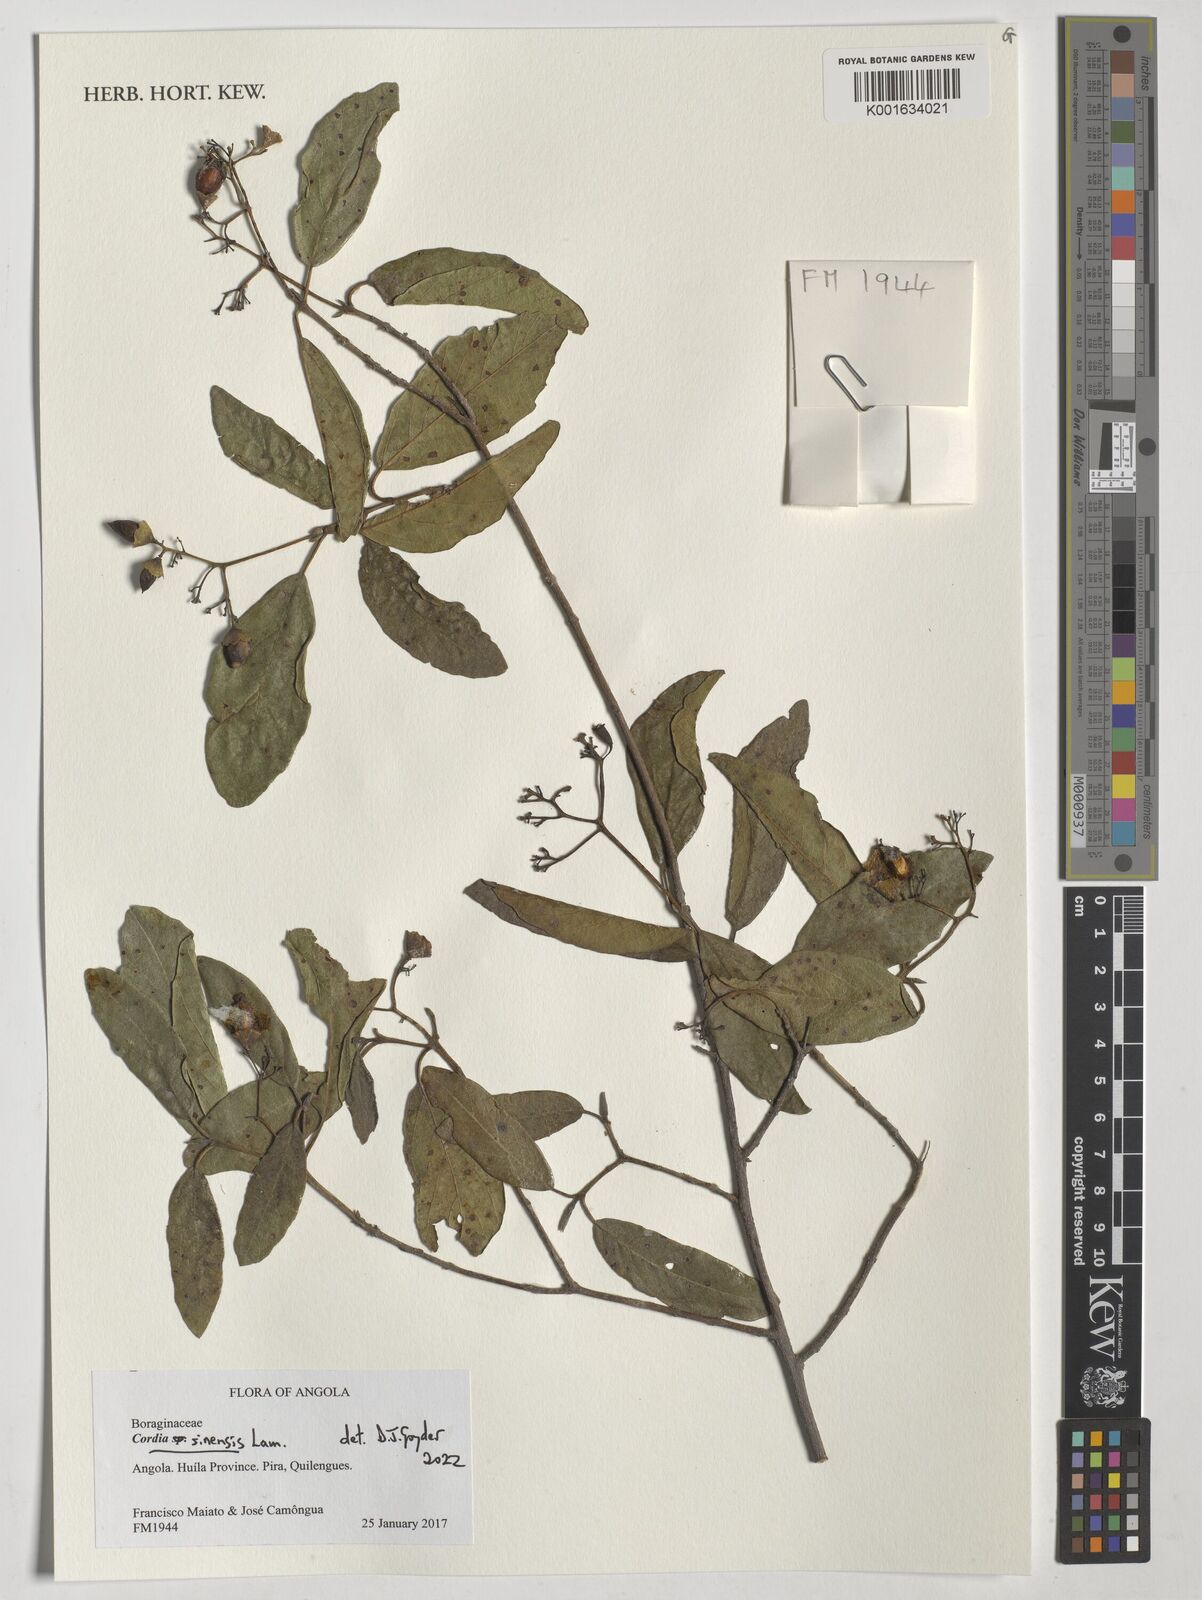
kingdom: Plantae
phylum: Tracheophyta
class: Magnoliopsida
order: Boraginales
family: Cordiaceae
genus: Cordia
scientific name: Cordia sinensis
